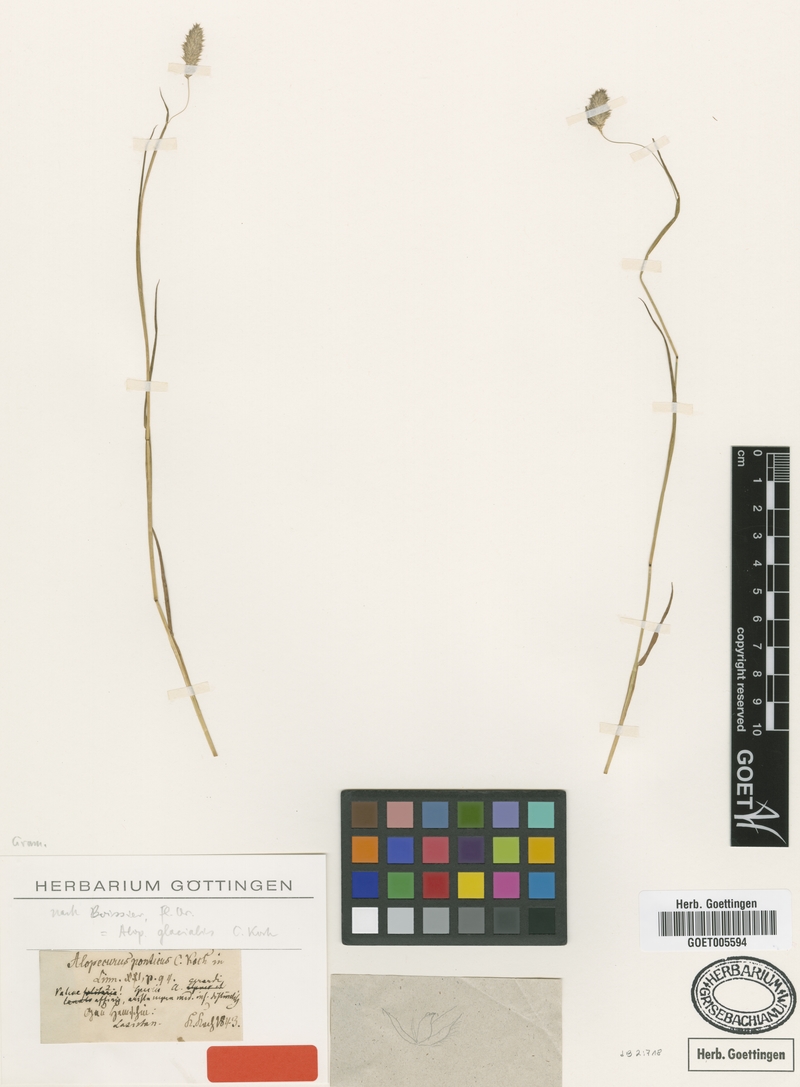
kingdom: Plantae
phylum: Tracheophyta
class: Liliopsida
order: Poales
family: Poaceae
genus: Alopecurus
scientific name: Alopecurus glacialis
